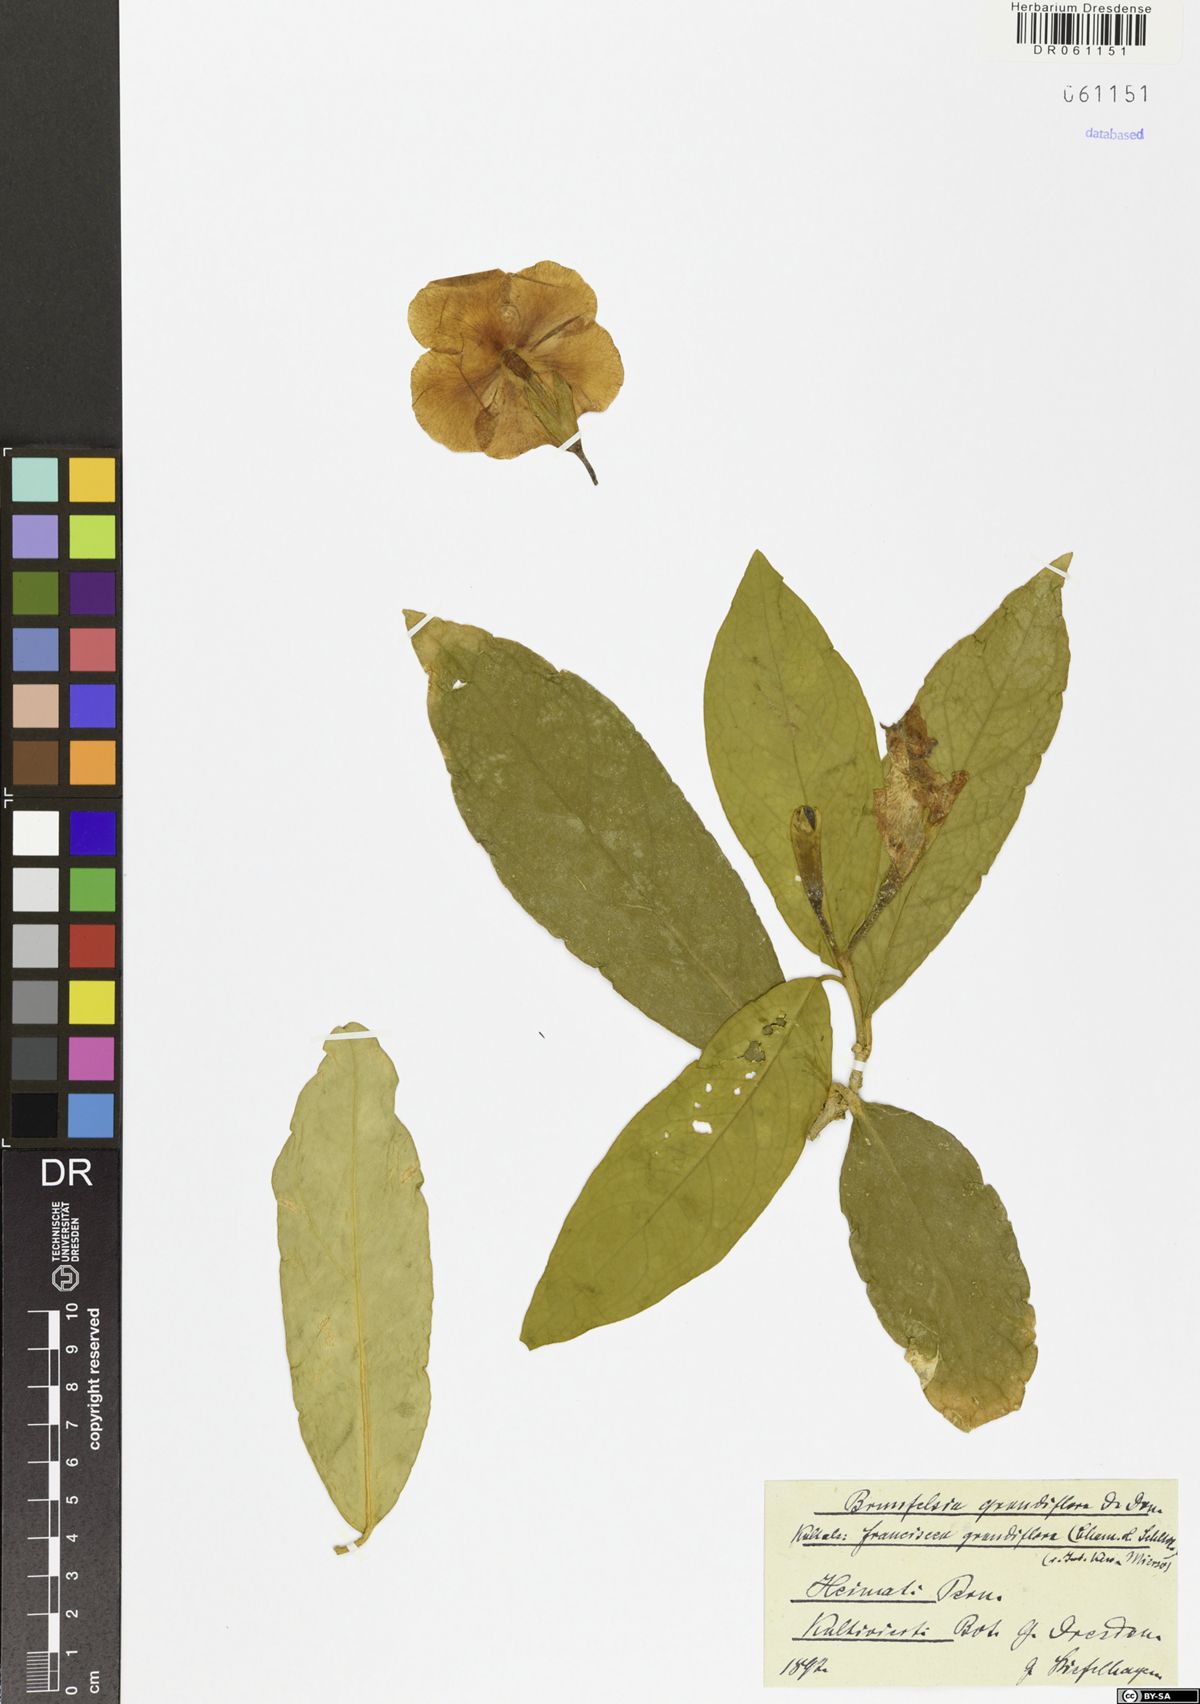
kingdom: Plantae
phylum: Tracheophyta
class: Magnoliopsida
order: Solanales
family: Solanaceae
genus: Brunfelsia
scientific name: Brunfelsia grandiflora
